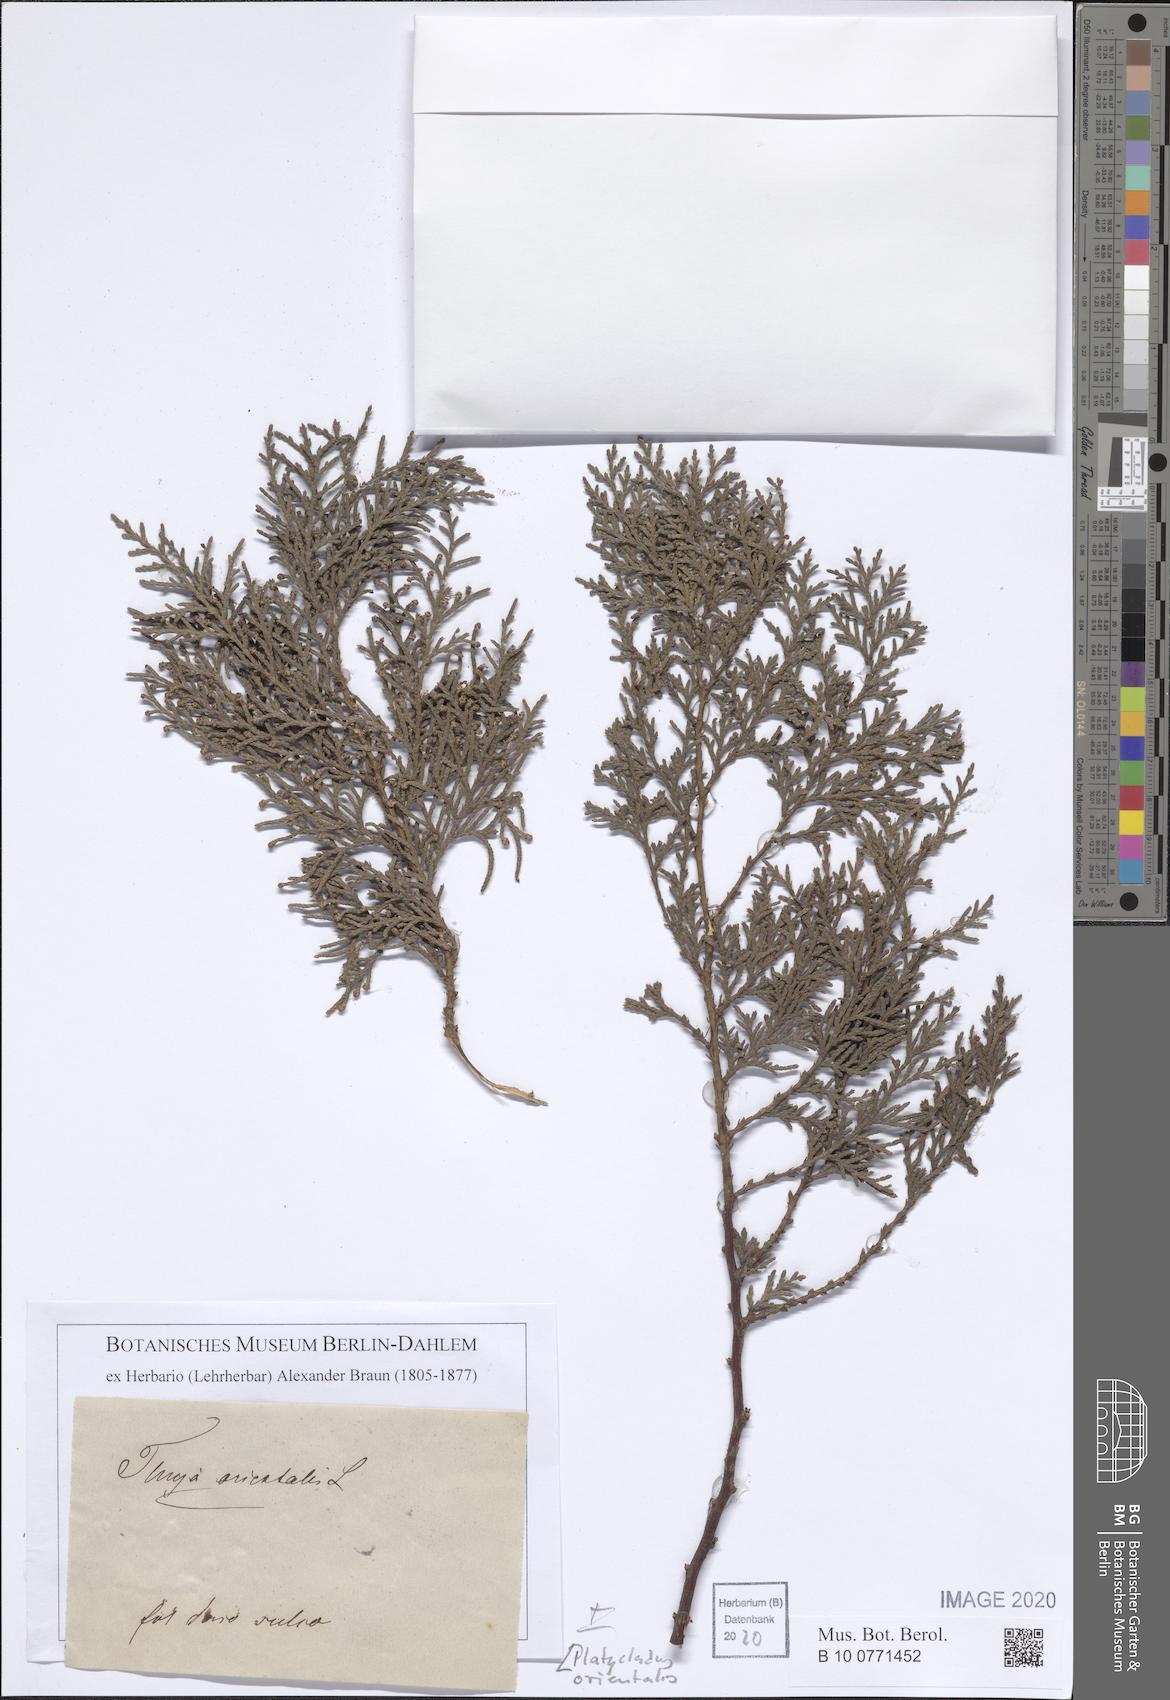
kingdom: Plantae
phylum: Tracheophyta
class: Pinopsida
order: Pinales
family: Cupressaceae
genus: Platycladus
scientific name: Platycladus orientalis
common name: Chinese thuja
